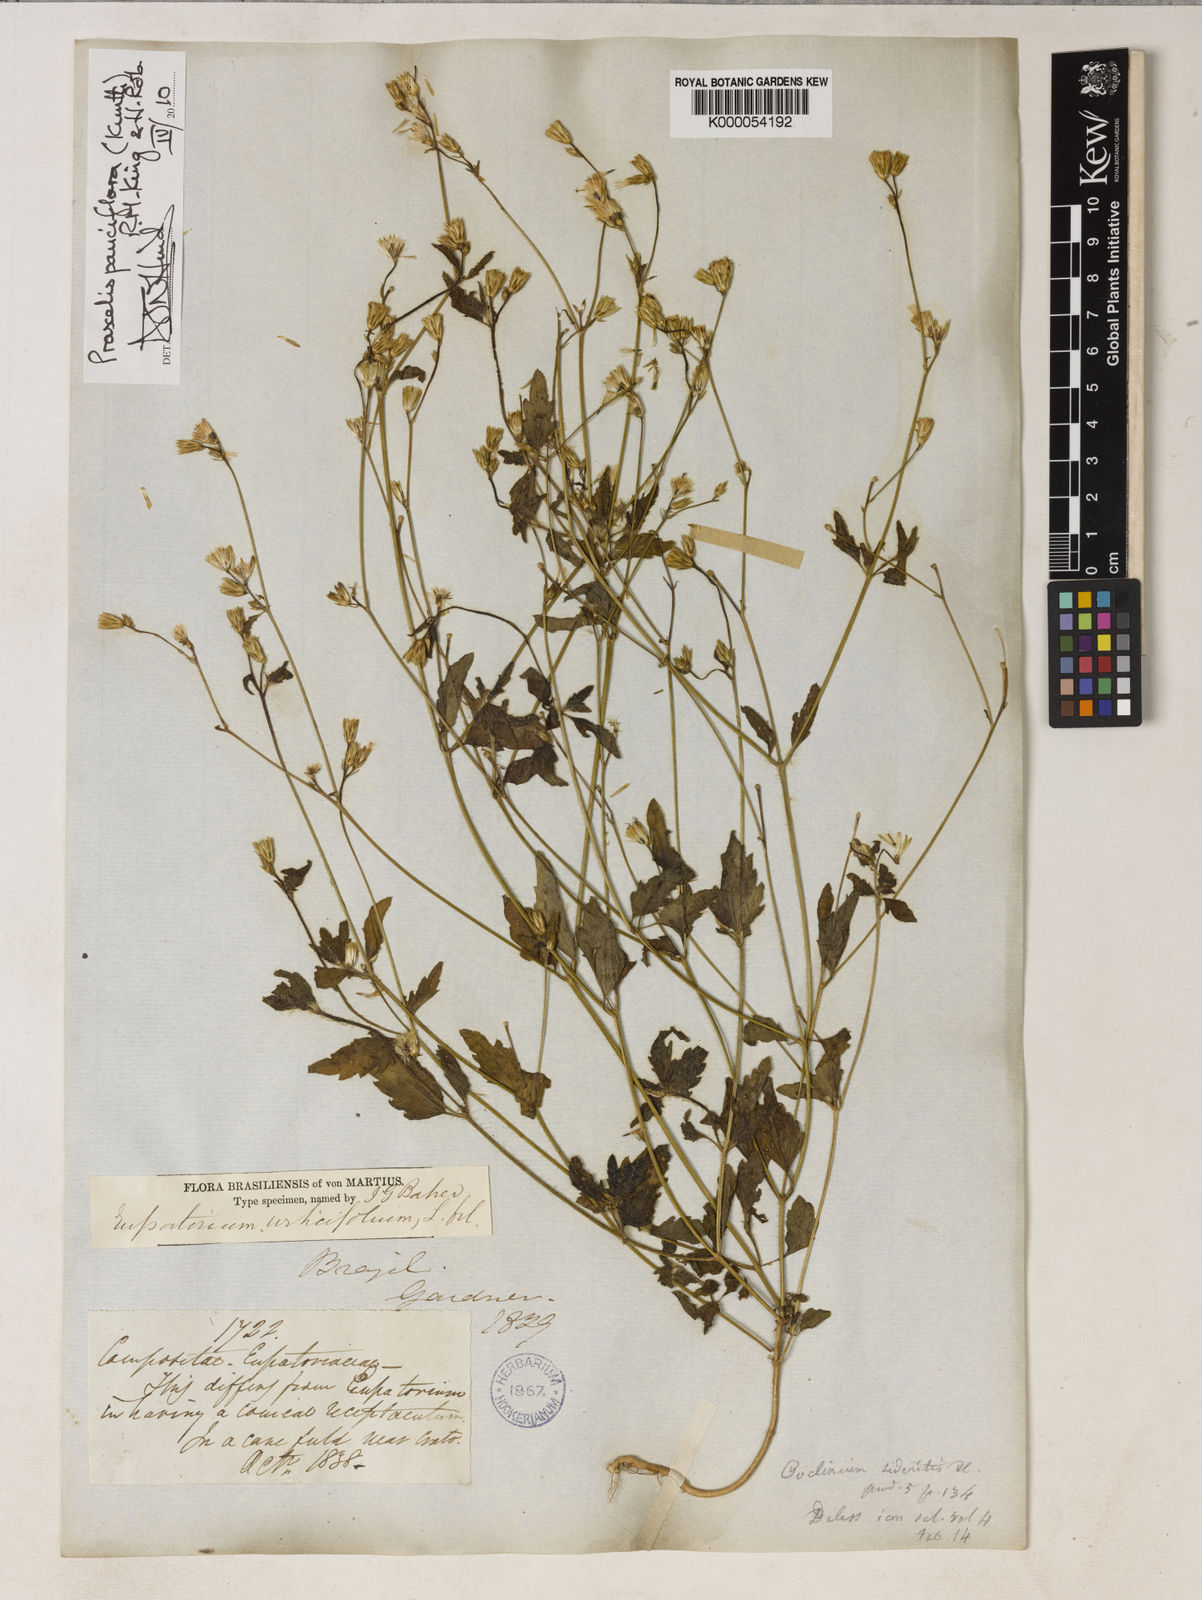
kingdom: Plantae
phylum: Tracheophyta
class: Magnoliopsida
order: Asterales
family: Asteraceae
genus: Praxelis
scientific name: Praxelis diffusa
